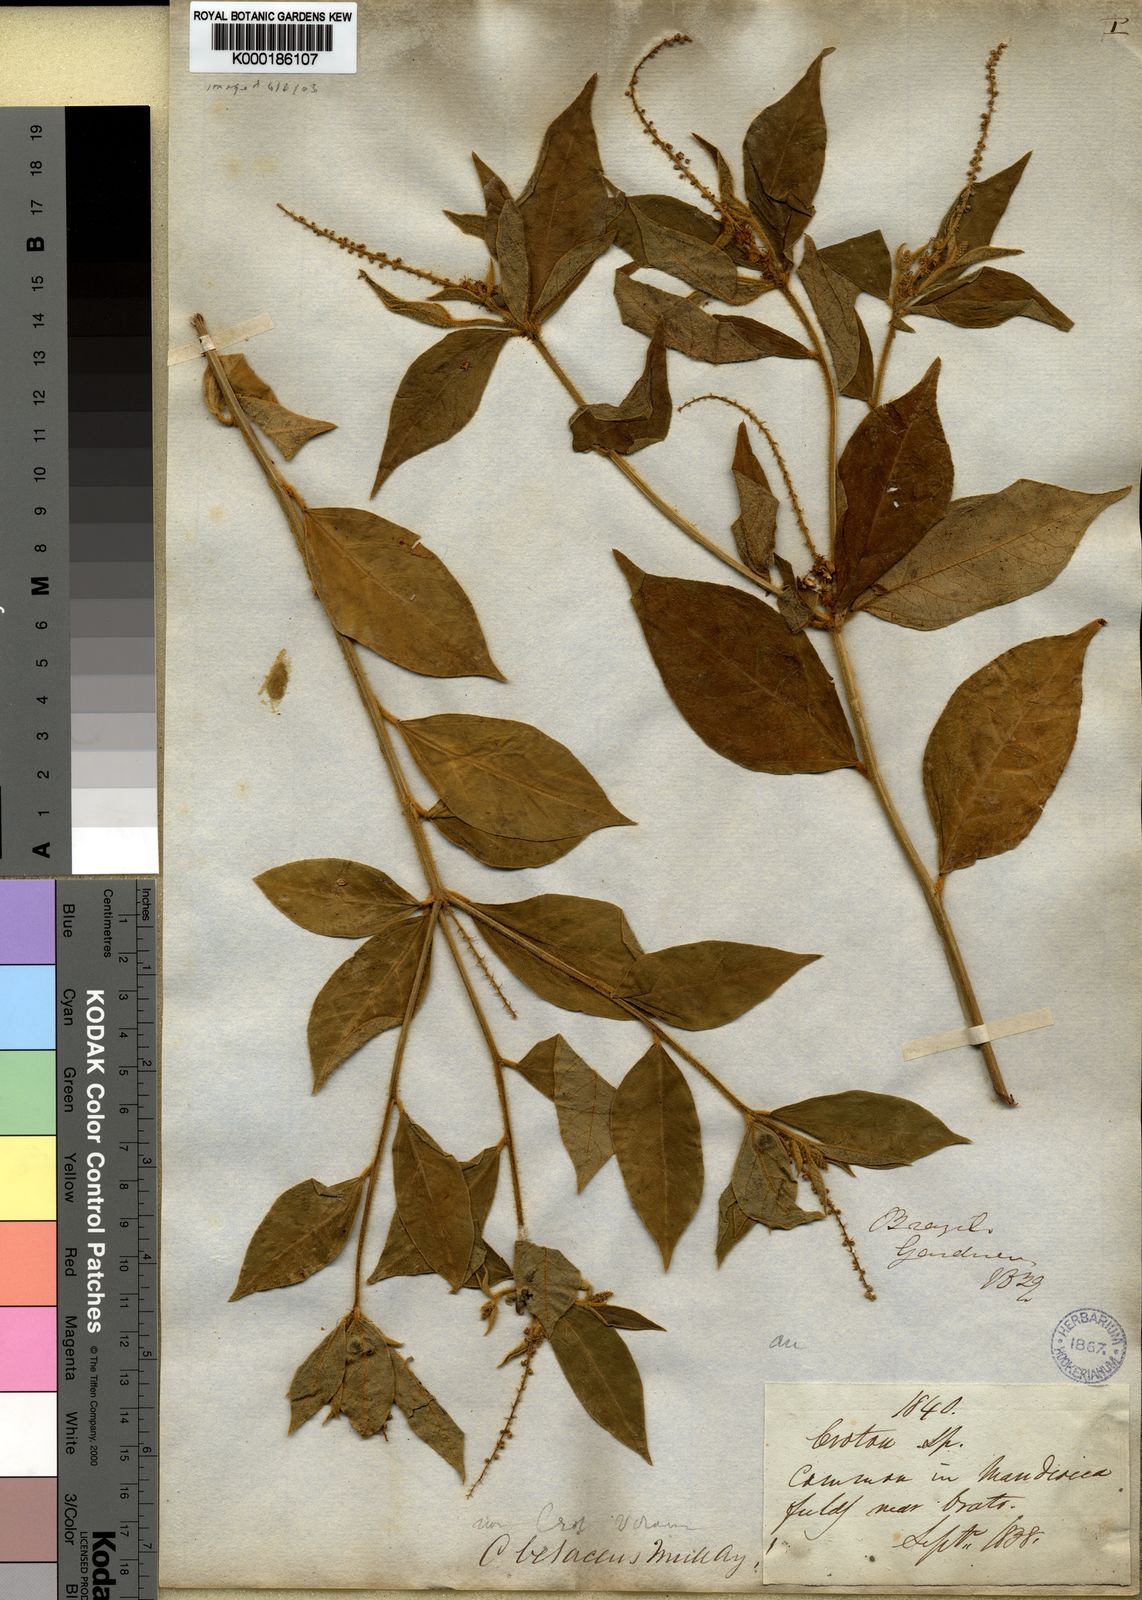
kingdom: Plantae
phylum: Tracheophyta
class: Magnoliopsida
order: Malpighiales
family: Euphorbiaceae
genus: Croton
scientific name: Croton betaceus
